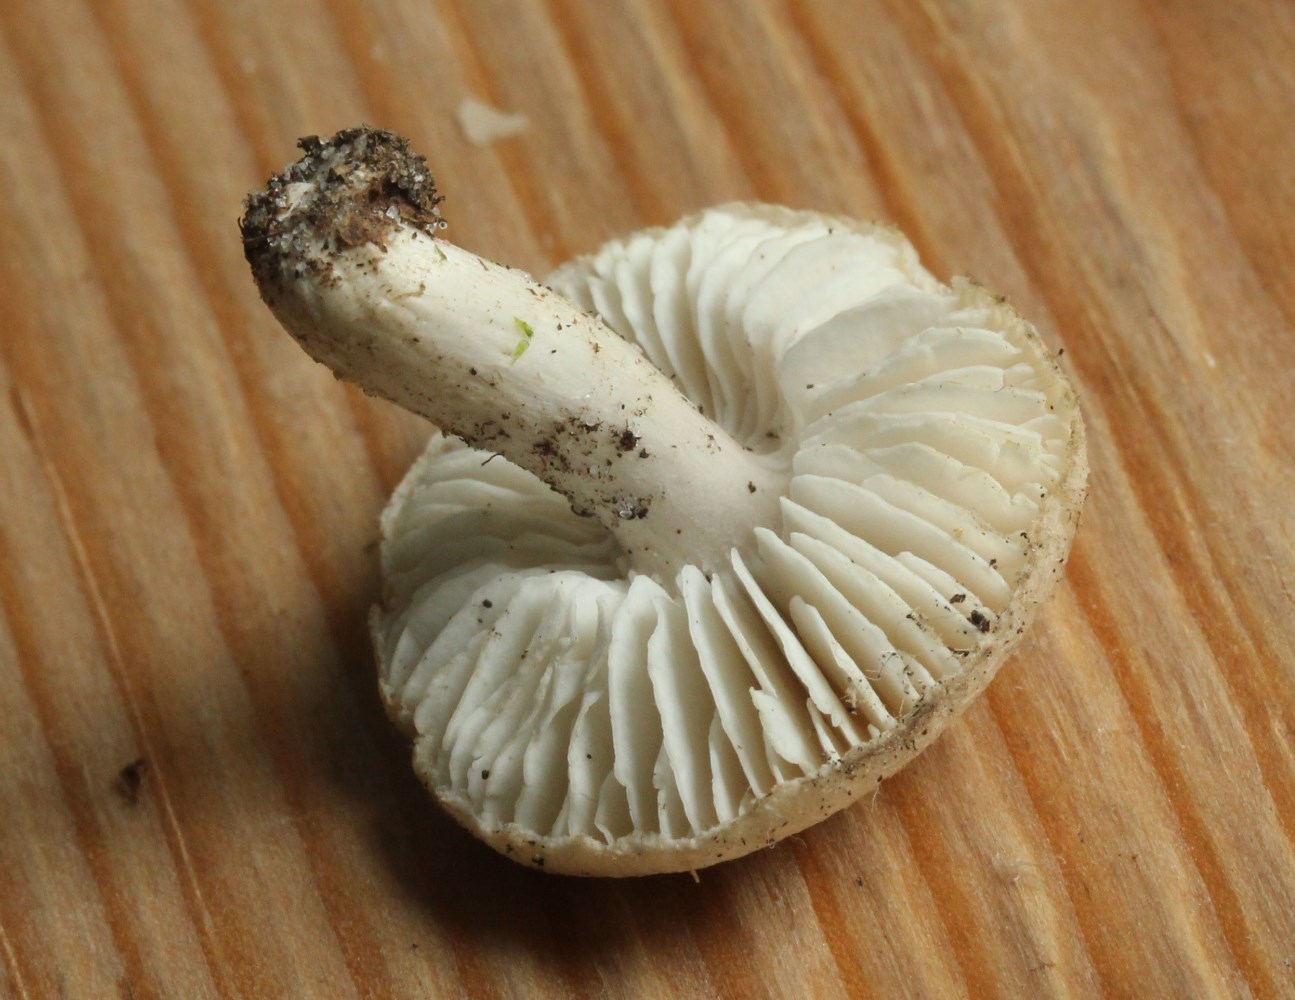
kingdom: Fungi
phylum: Basidiomycota
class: Agaricomycetes
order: Agaricales
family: Tricholomataceae
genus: Tricholoma
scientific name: Tricholoma bonii
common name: skiffergrå ridderhat
